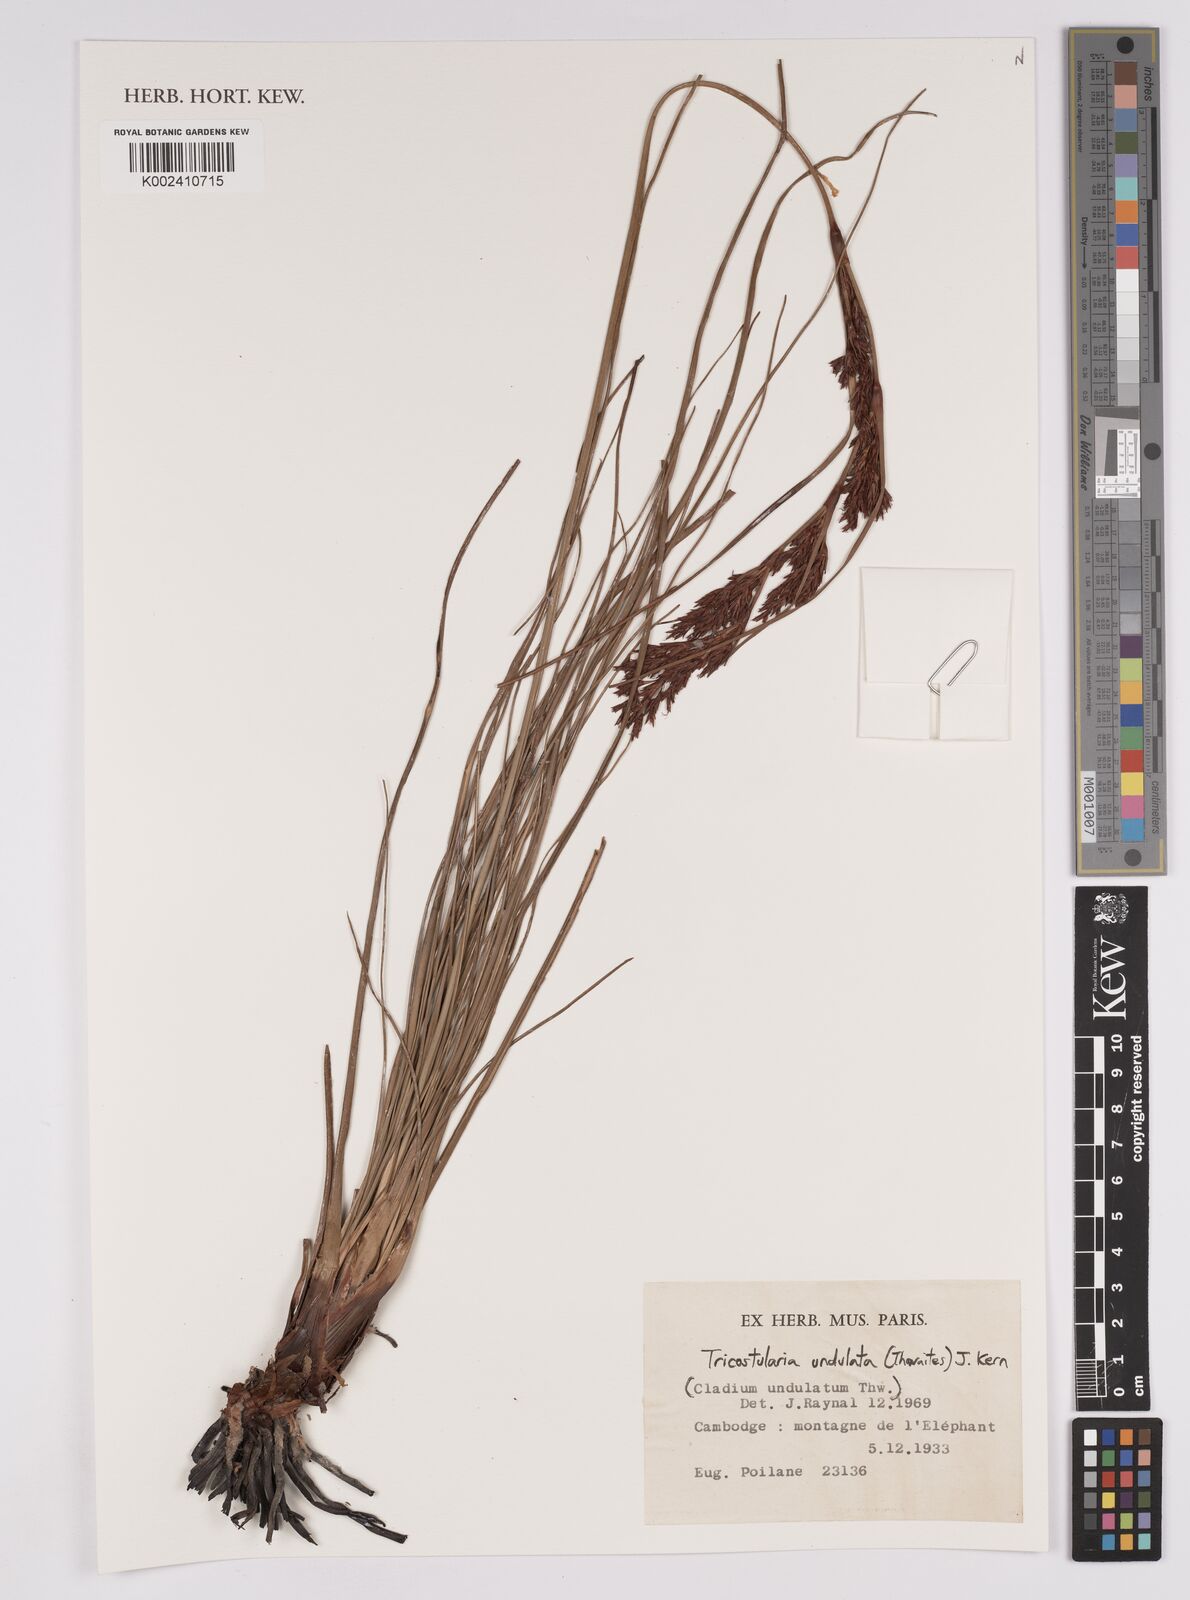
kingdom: Plantae
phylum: Tracheophyta
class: Liliopsida
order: Poales
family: Cyperaceae
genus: Anthelepis
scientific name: Anthelepis undulata
